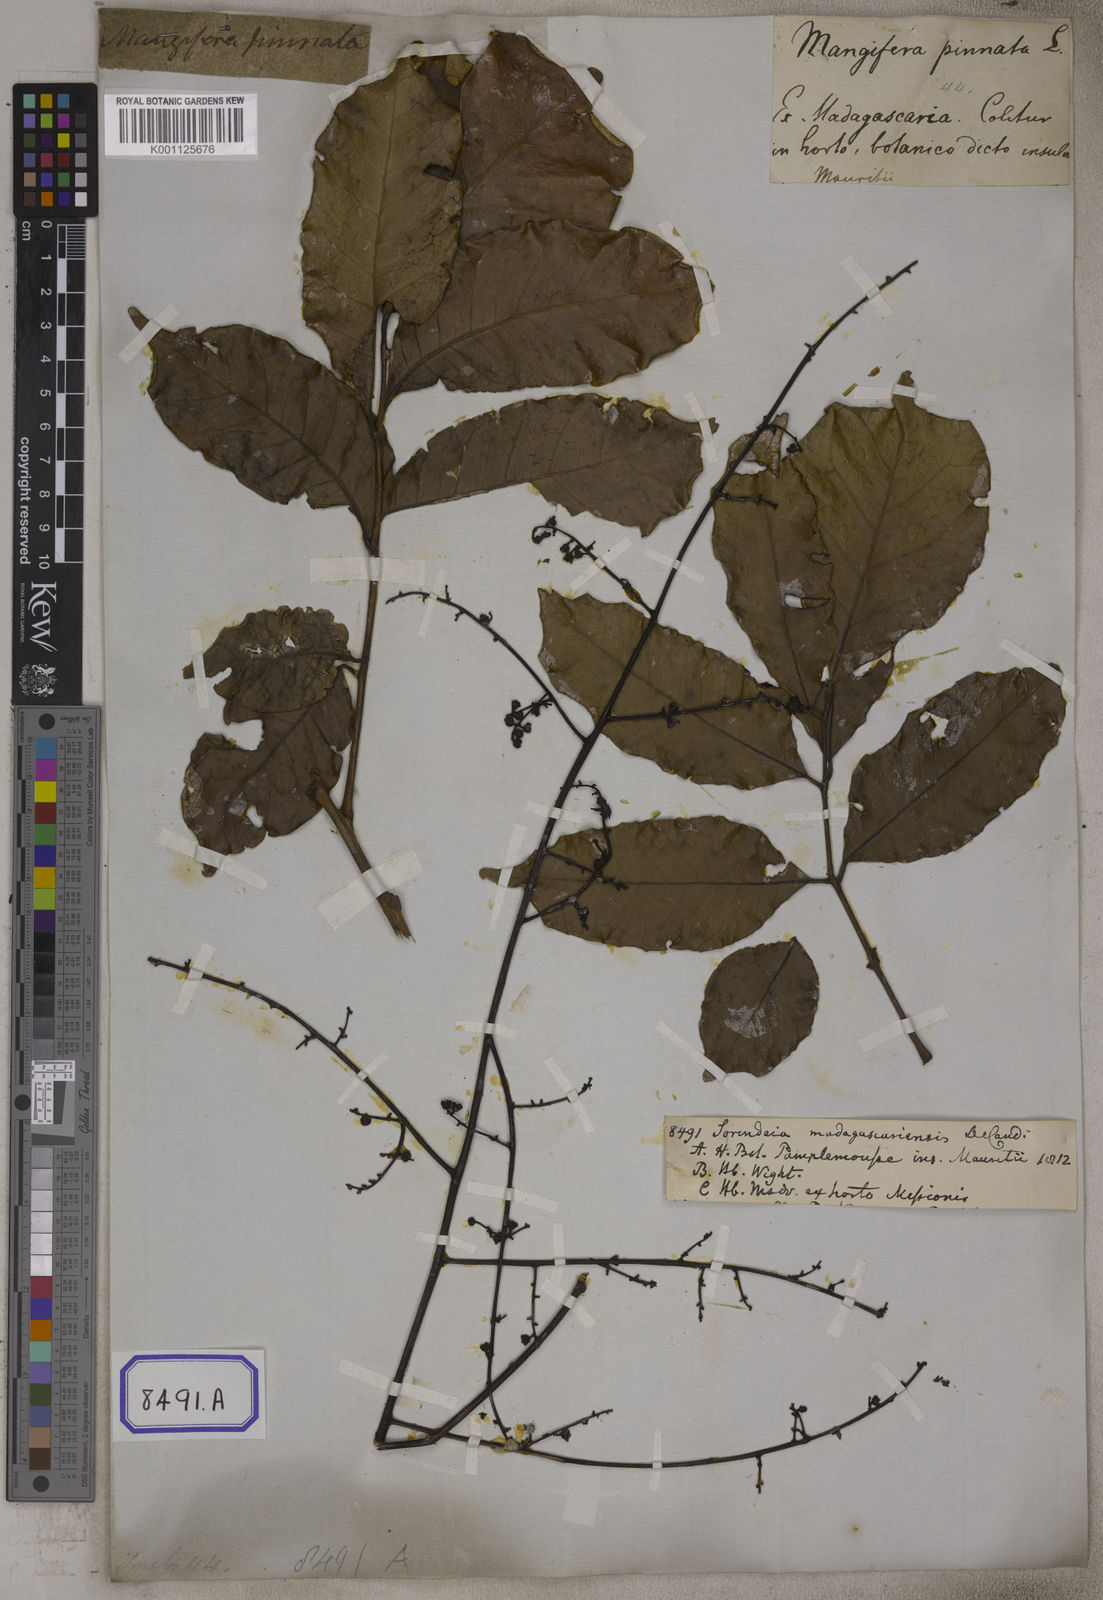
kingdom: Plantae
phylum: Tracheophyta
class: Magnoliopsida
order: Sapindales
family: Anacardiaceae
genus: Sorindeia
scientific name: Sorindeia madagascariensis
